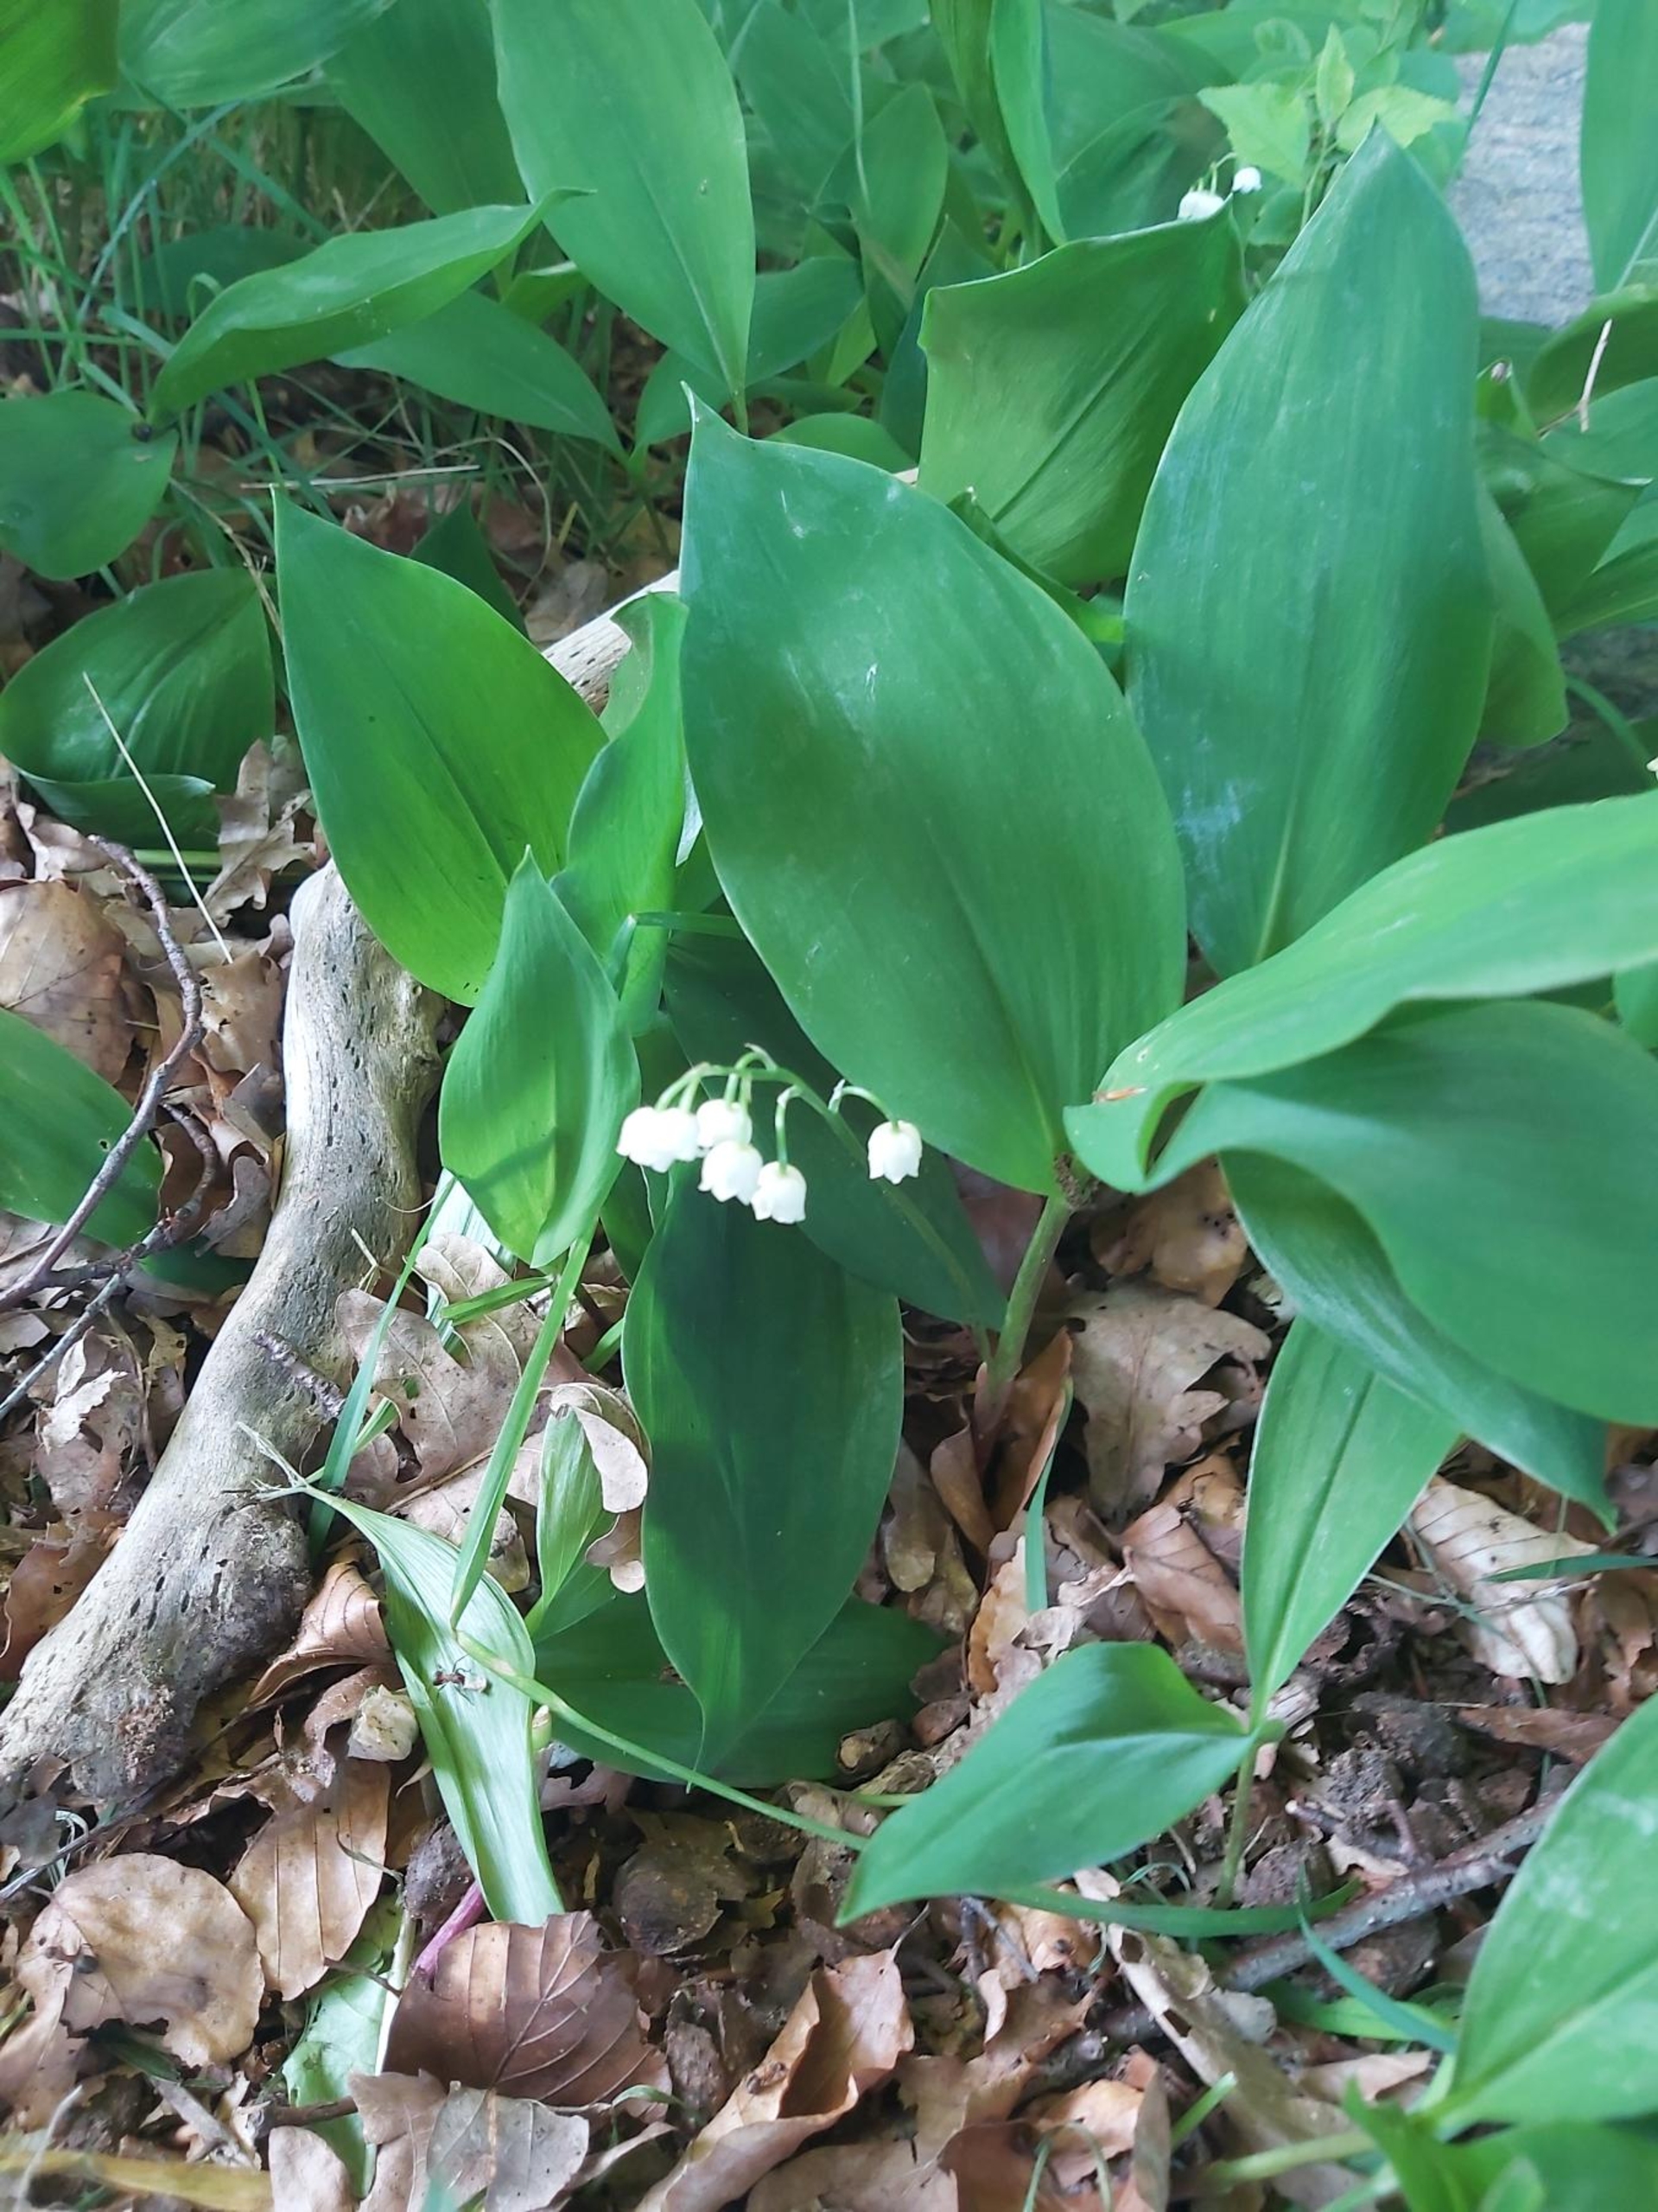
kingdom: Plantae
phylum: Tracheophyta
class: Liliopsida
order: Asparagales
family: Asparagaceae
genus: Convallaria
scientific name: Convallaria majalis
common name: Liljekonval
